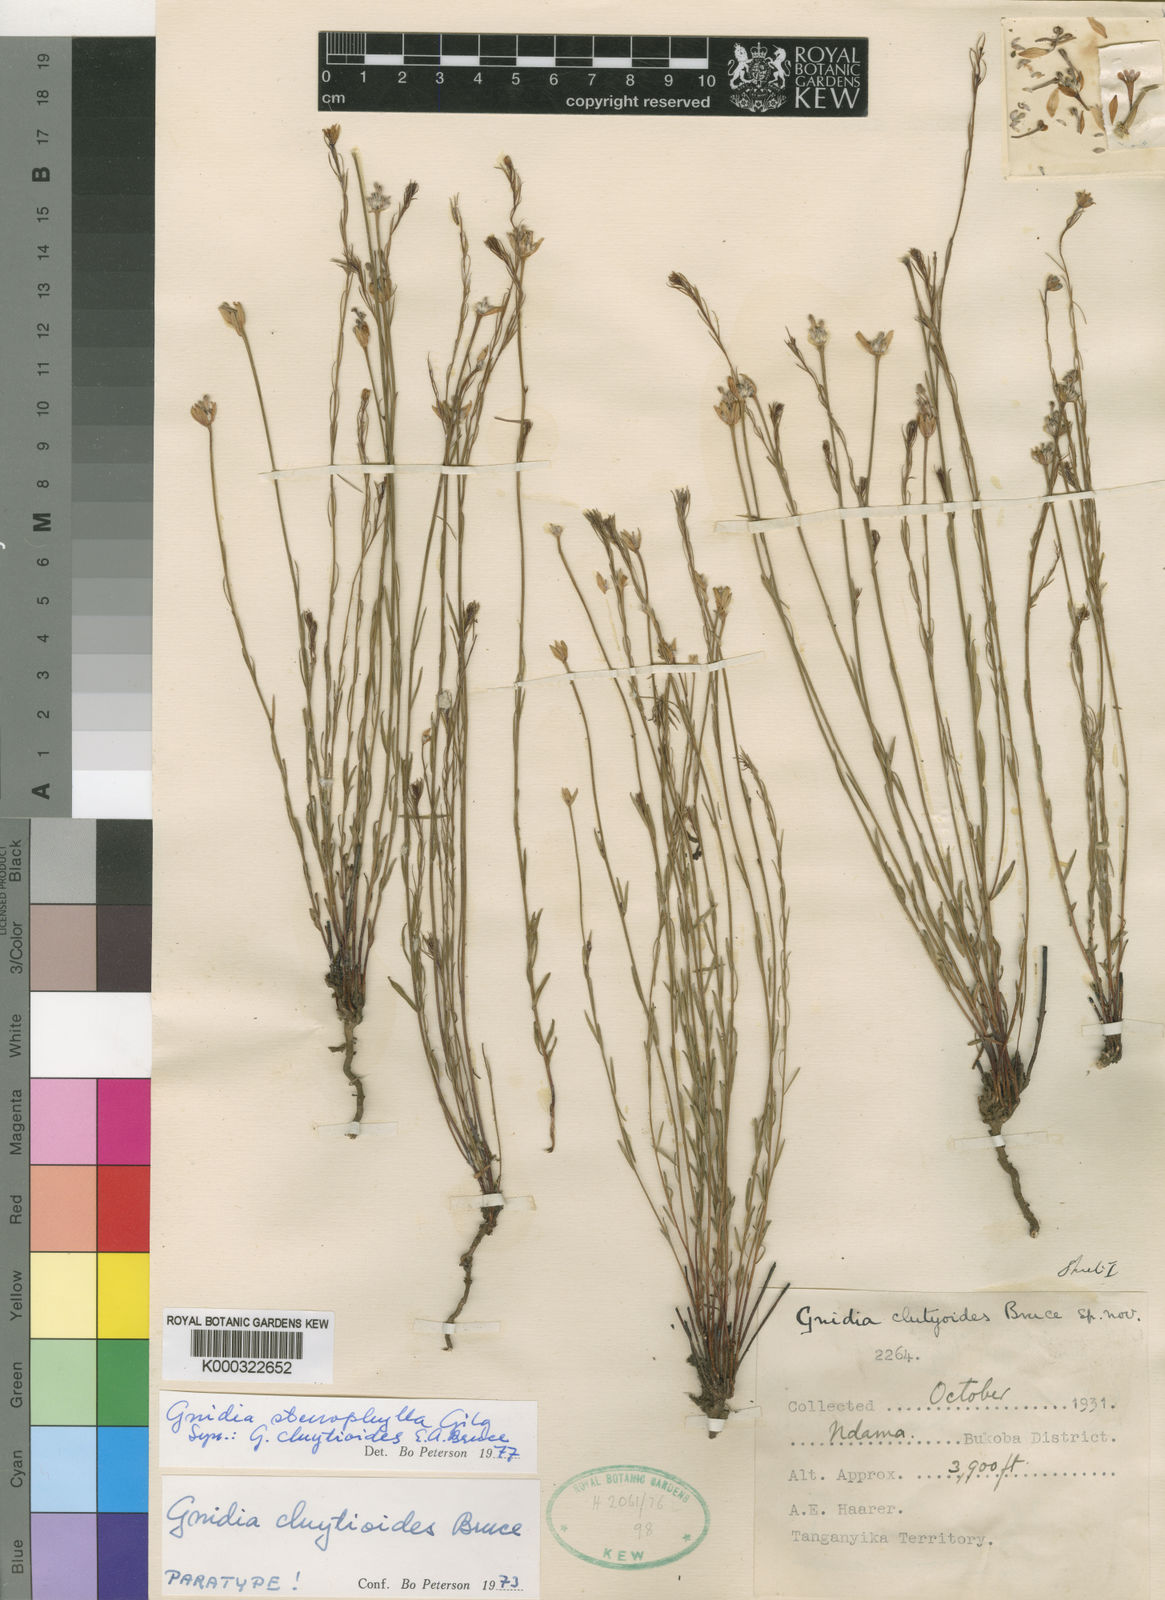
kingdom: Plantae
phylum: Tracheophyta
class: Magnoliopsida
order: Malvales
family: Thymelaeaceae
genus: Gnidia
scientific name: Gnidia stenophylla
